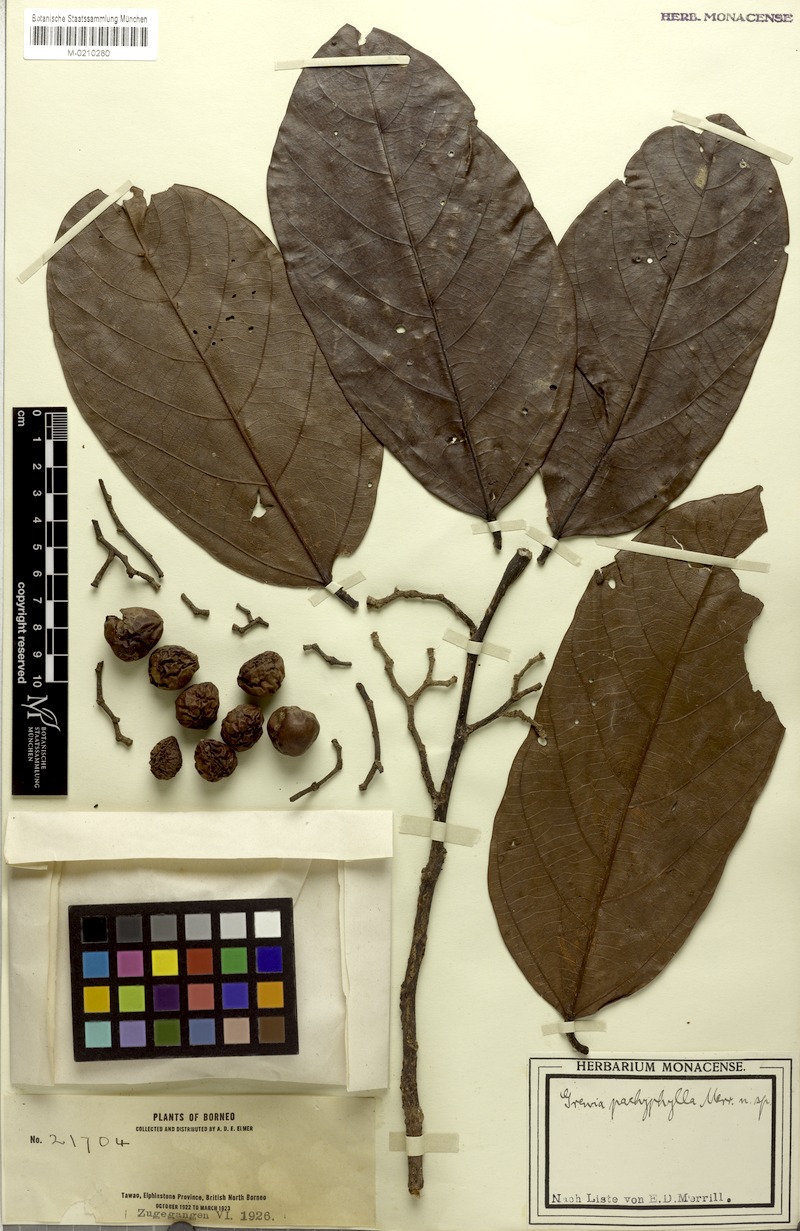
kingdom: Plantae
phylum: Tracheophyta
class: Magnoliopsida
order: Malvales
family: Malvaceae
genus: Microcos
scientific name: Microcos pachyphylla
